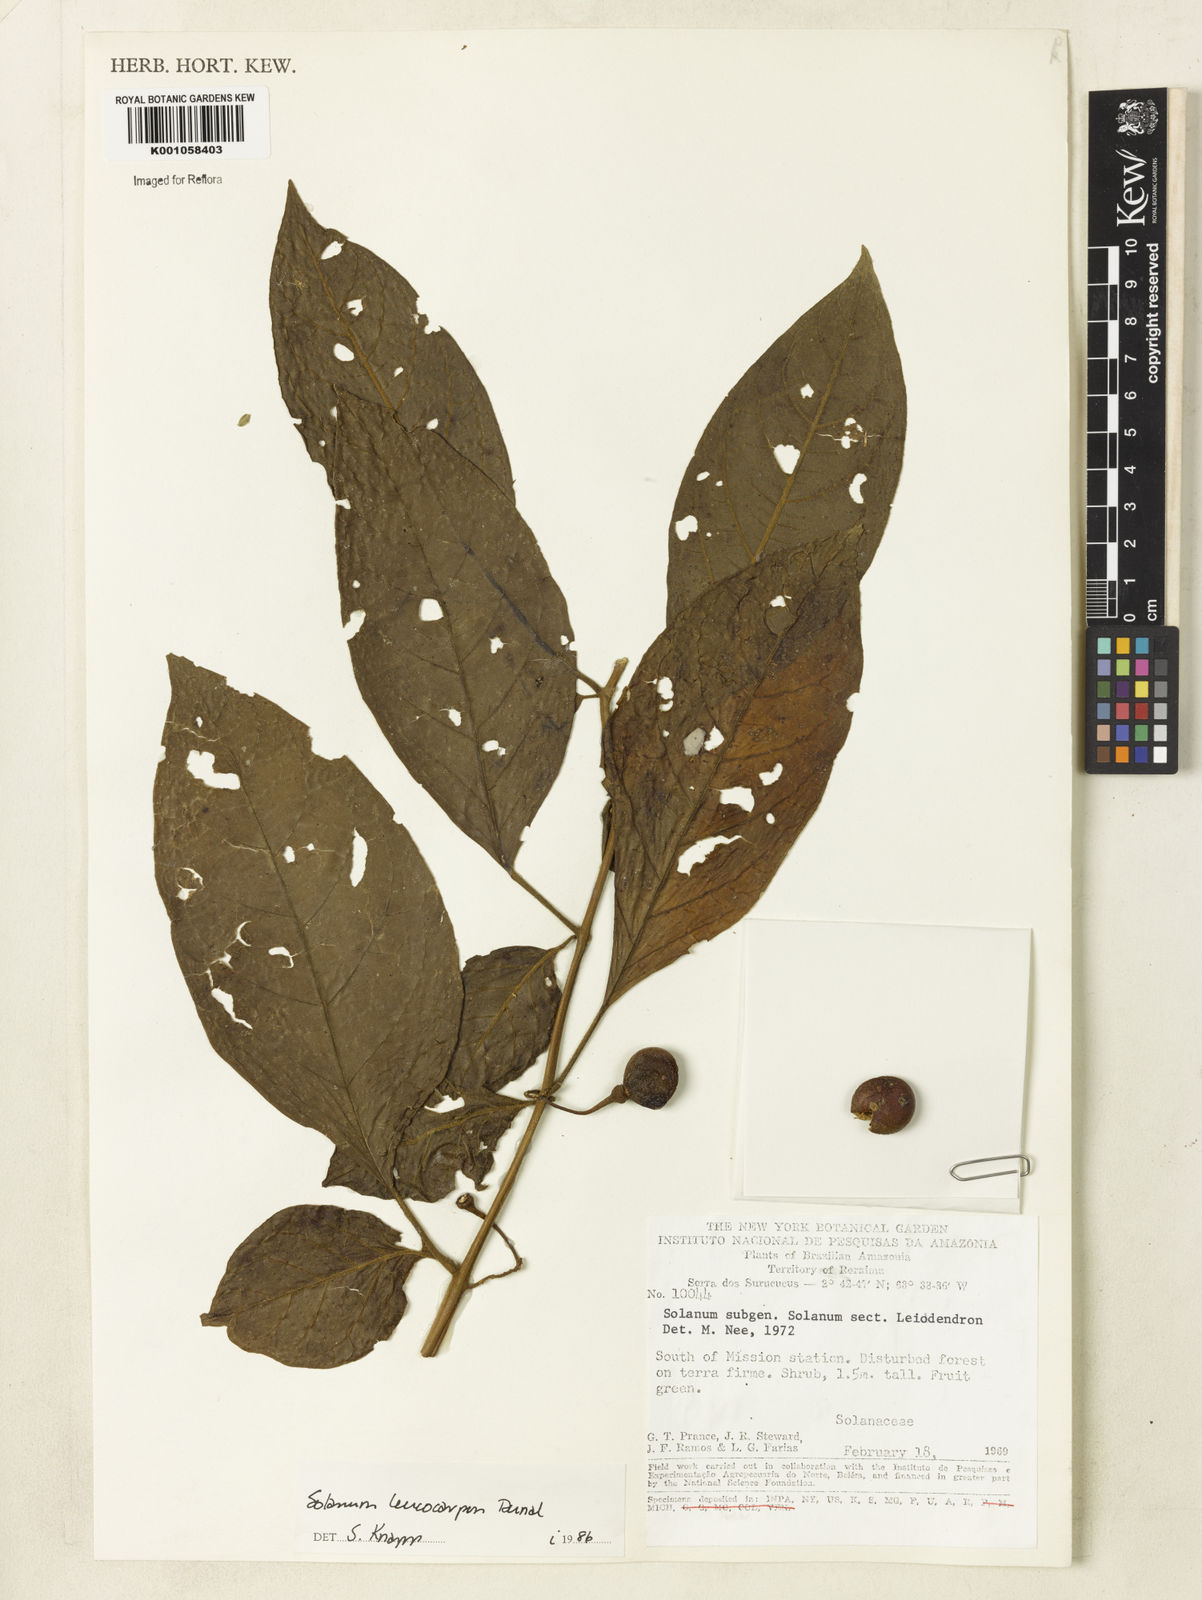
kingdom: Plantae
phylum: Tracheophyta
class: Magnoliopsida
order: Solanales
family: Solanaceae
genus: Solanum
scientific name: Solanum leucocarpon
